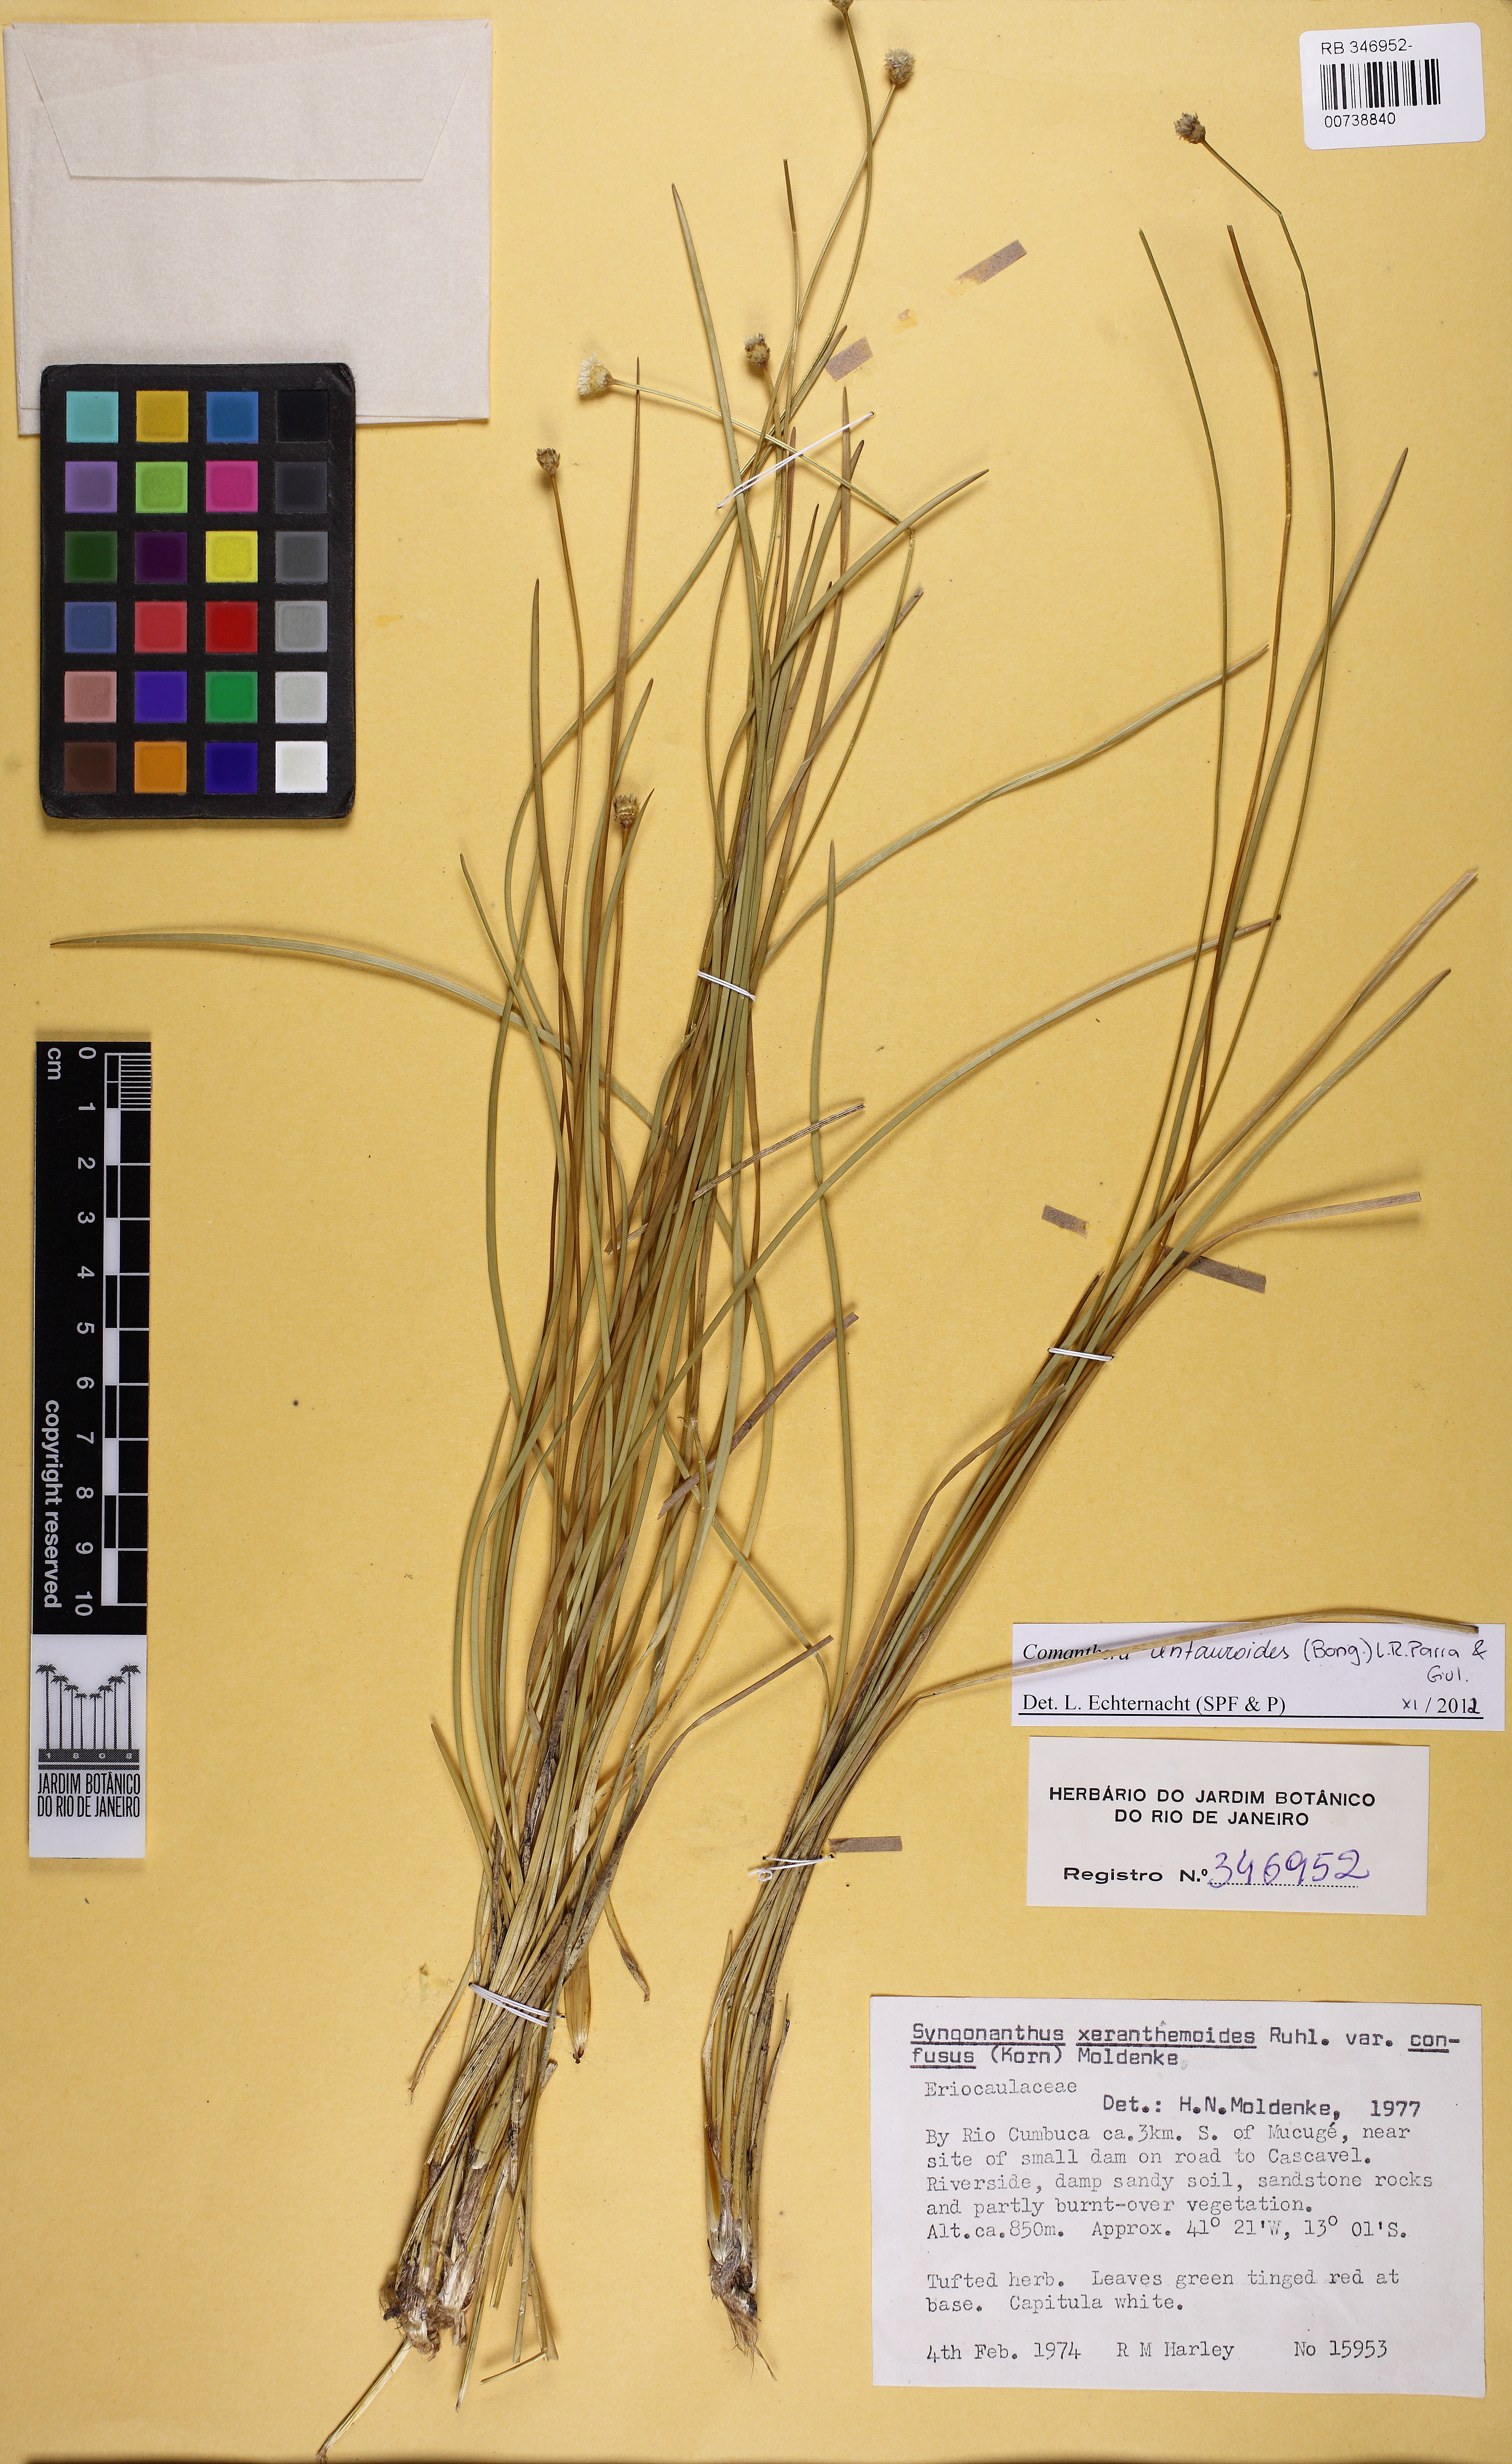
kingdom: Plantae
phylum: Tracheophyta
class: Liliopsida
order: Poales
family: Eriocaulaceae
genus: Comanthera
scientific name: Comanthera centauroides
